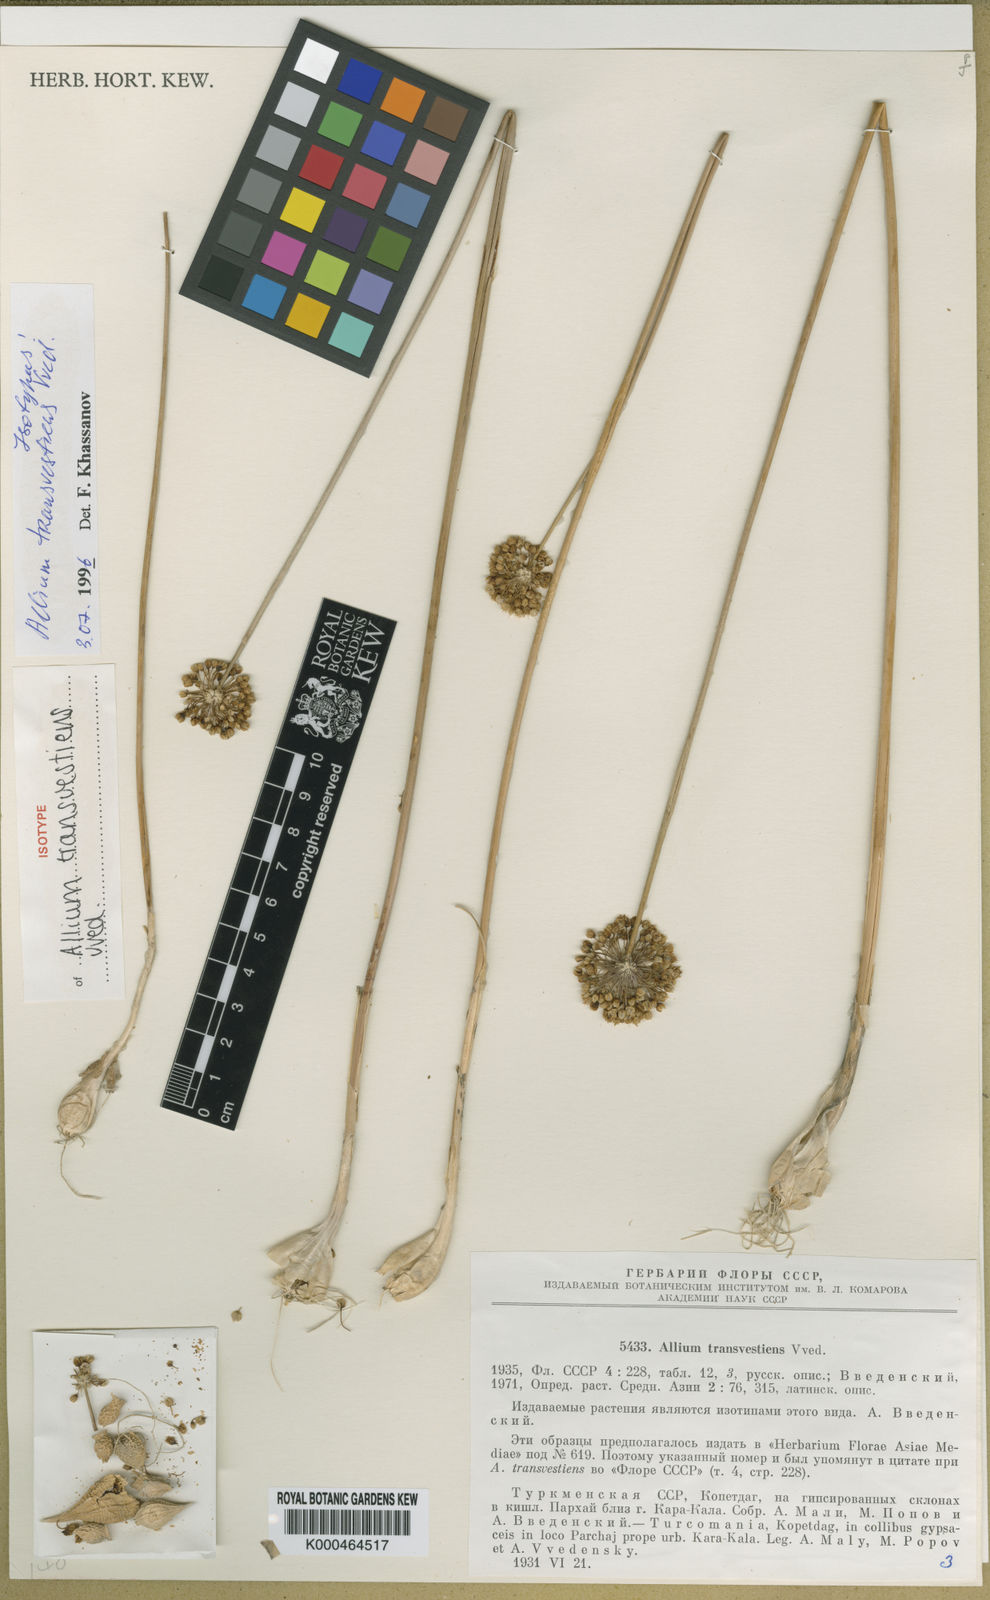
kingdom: Plantae
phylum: Tracheophyta
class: Liliopsida
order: Asparagales
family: Amaryllidaceae
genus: Allium
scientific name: Allium transvestiens
